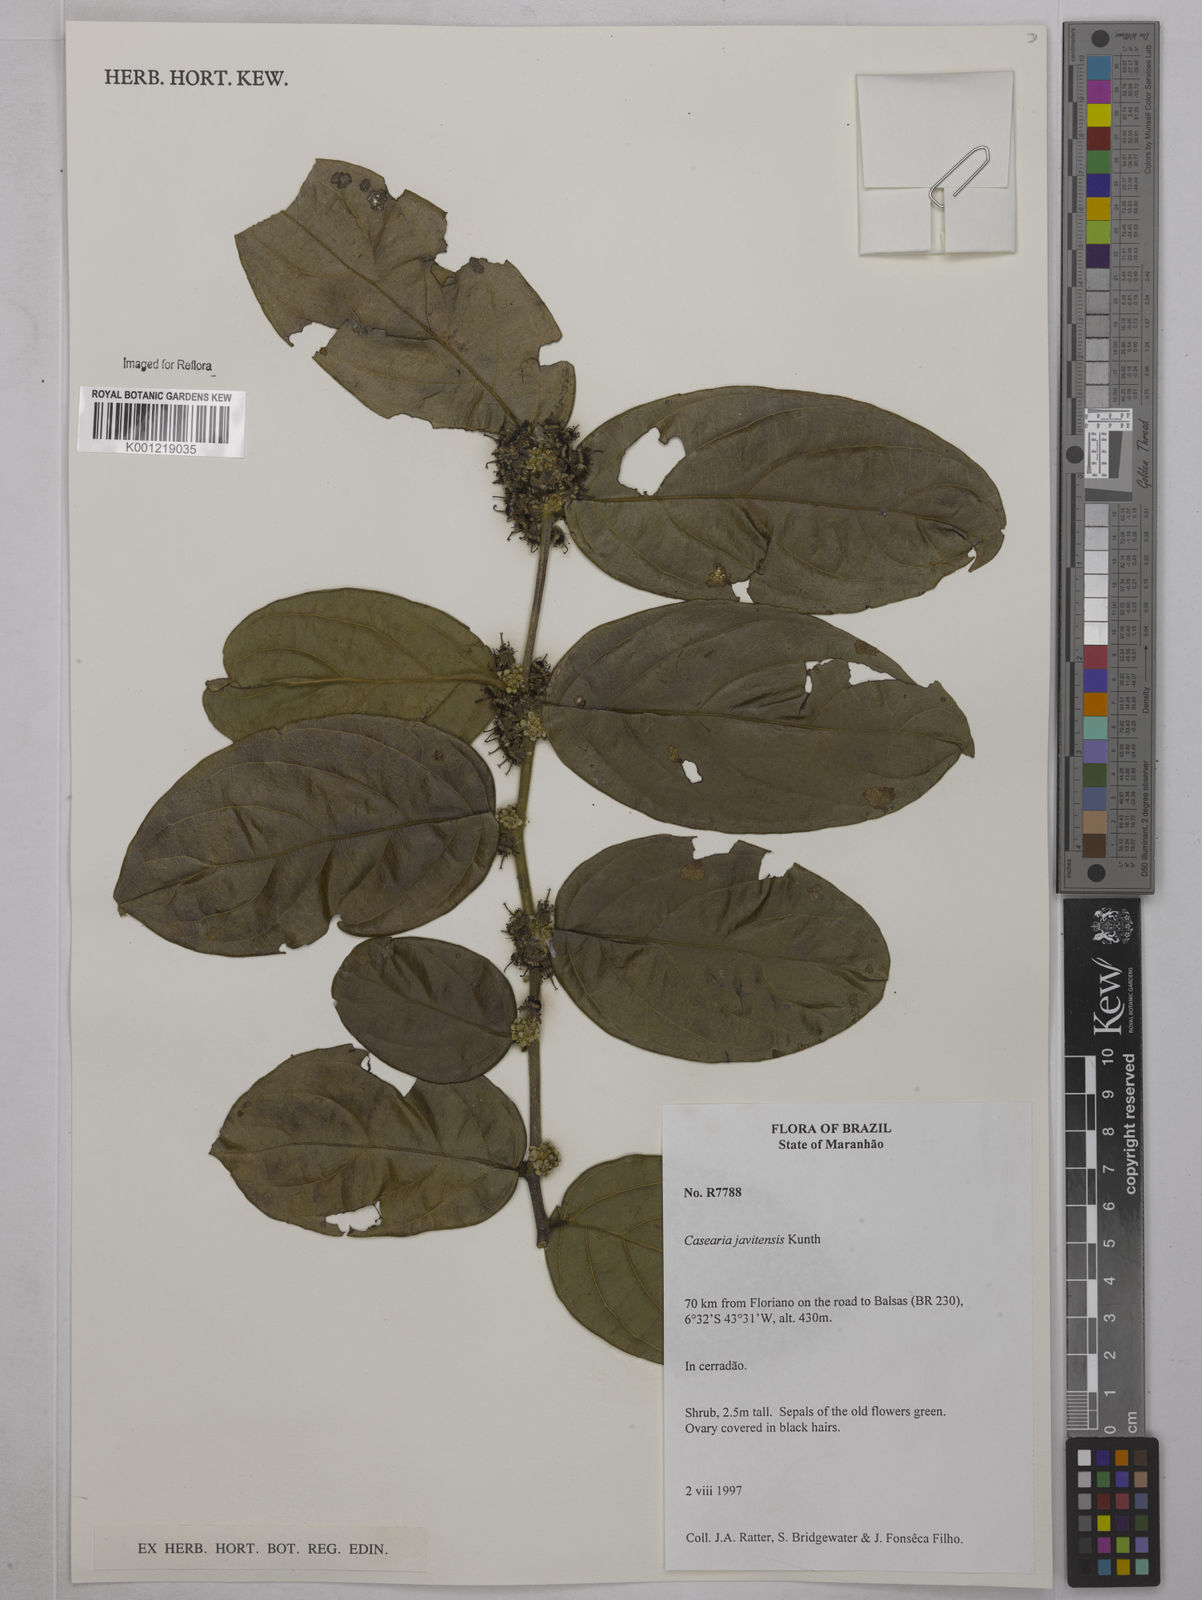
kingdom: Plantae
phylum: Tracheophyta
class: Magnoliopsida
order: Malpighiales
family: Salicaceae
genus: Piparea
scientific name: Piparea multiflora
